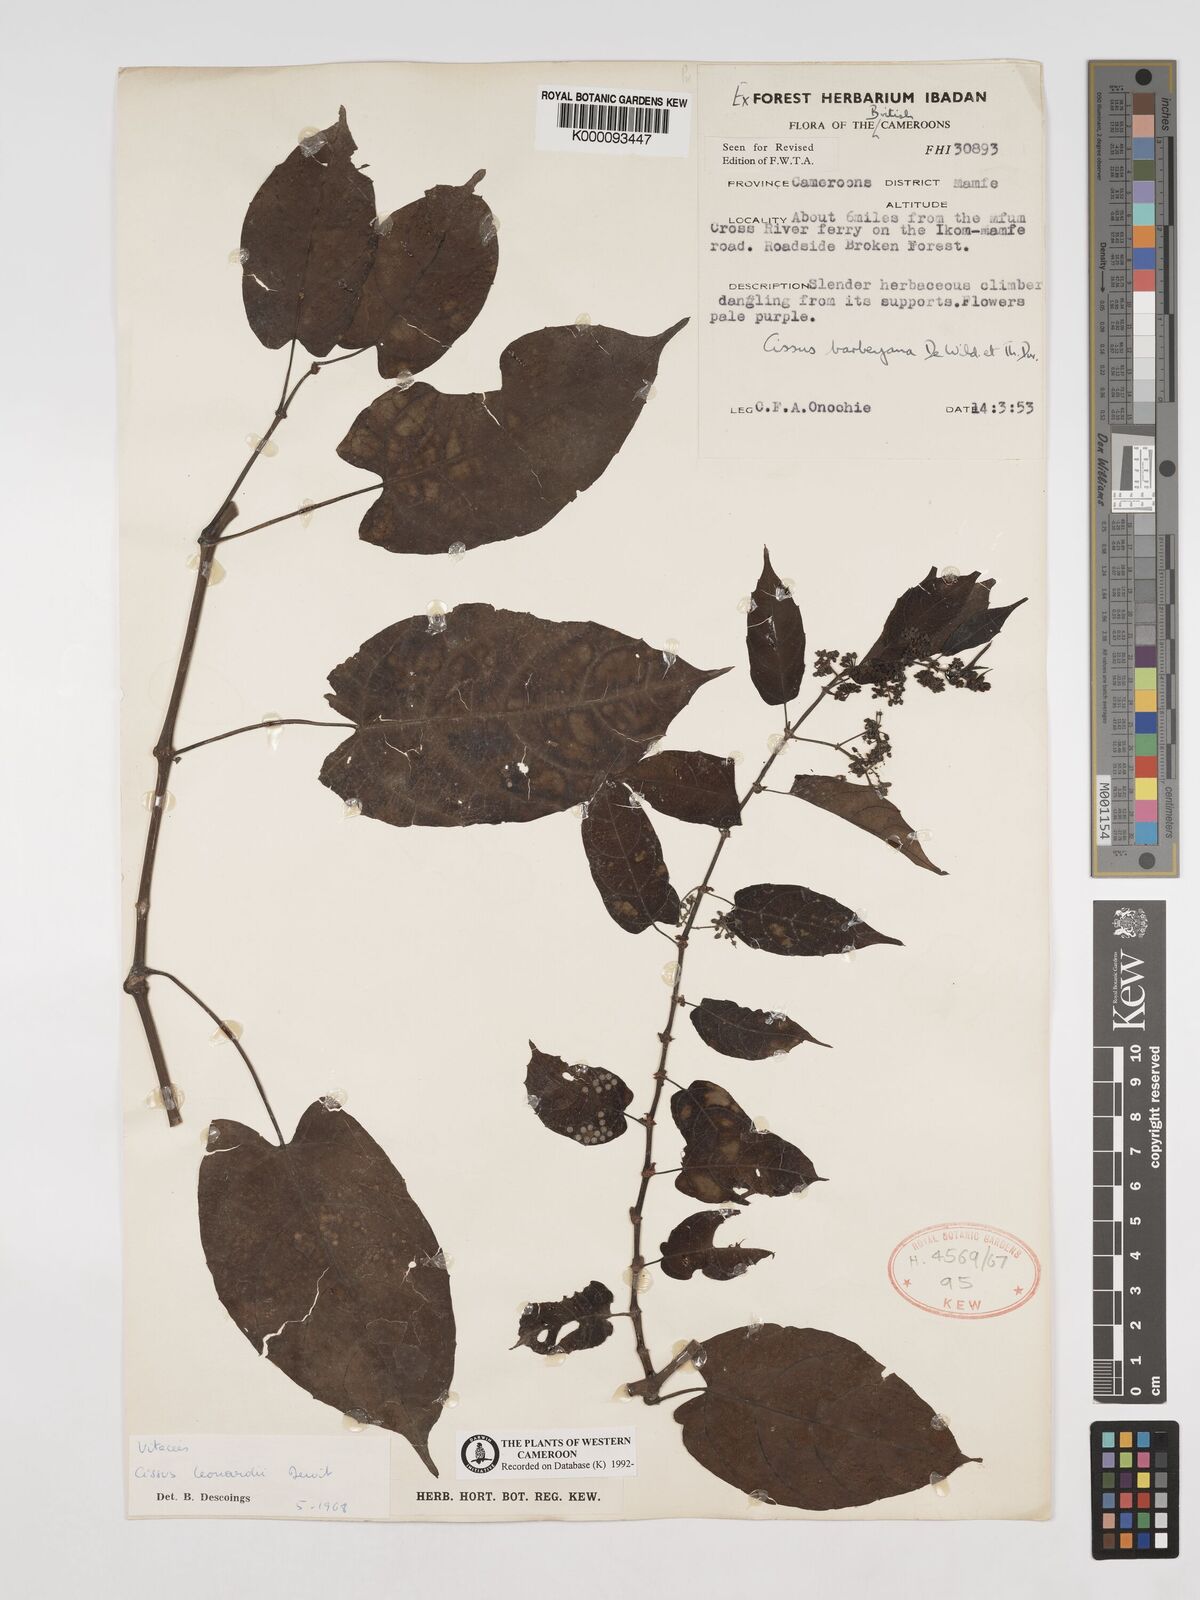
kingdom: Plantae
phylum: Tracheophyta
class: Magnoliopsida
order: Vitales
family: Vitaceae
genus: Cissus
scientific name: Cissus leonardii
